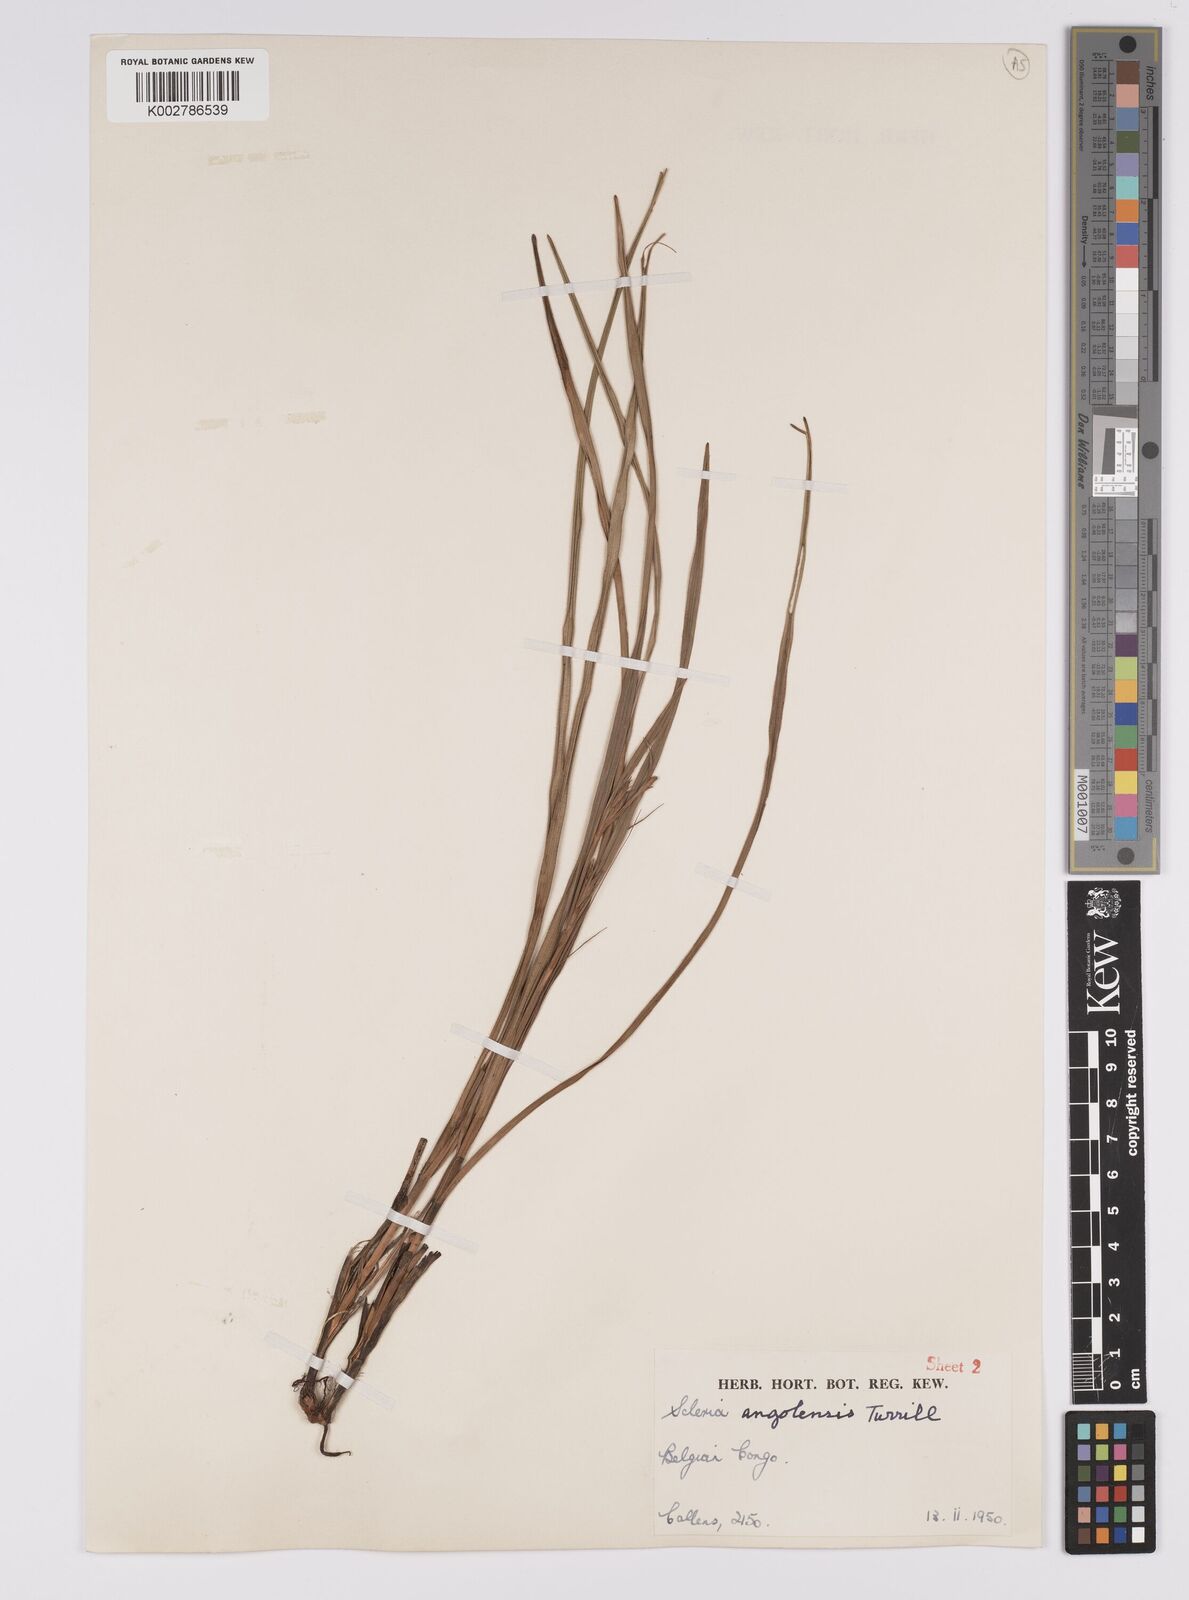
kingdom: Plantae
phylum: Tracheophyta
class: Liliopsida
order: Poales
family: Cyperaceae
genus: Scleria
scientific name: Scleria induta
